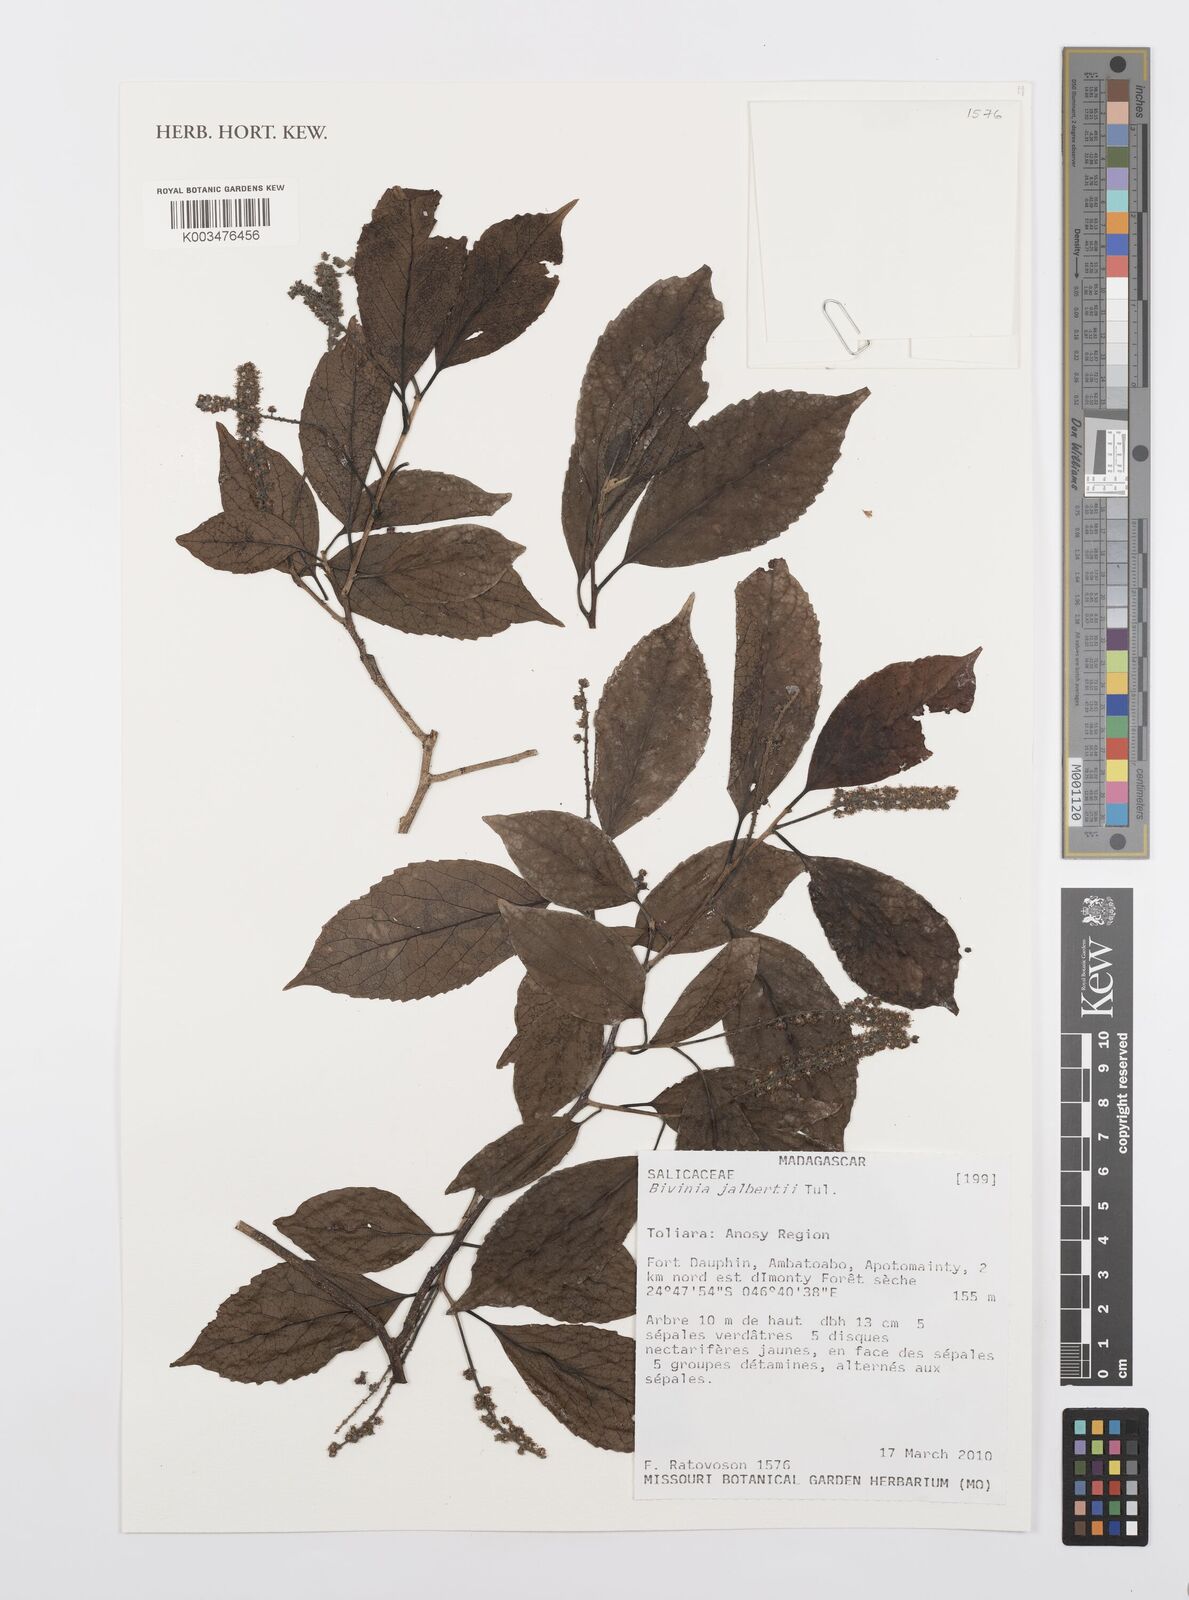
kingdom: Plantae
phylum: Tracheophyta
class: Magnoliopsida
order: Malpighiales
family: Salicaceae
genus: Bivinia
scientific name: Bivinia jalbertii
